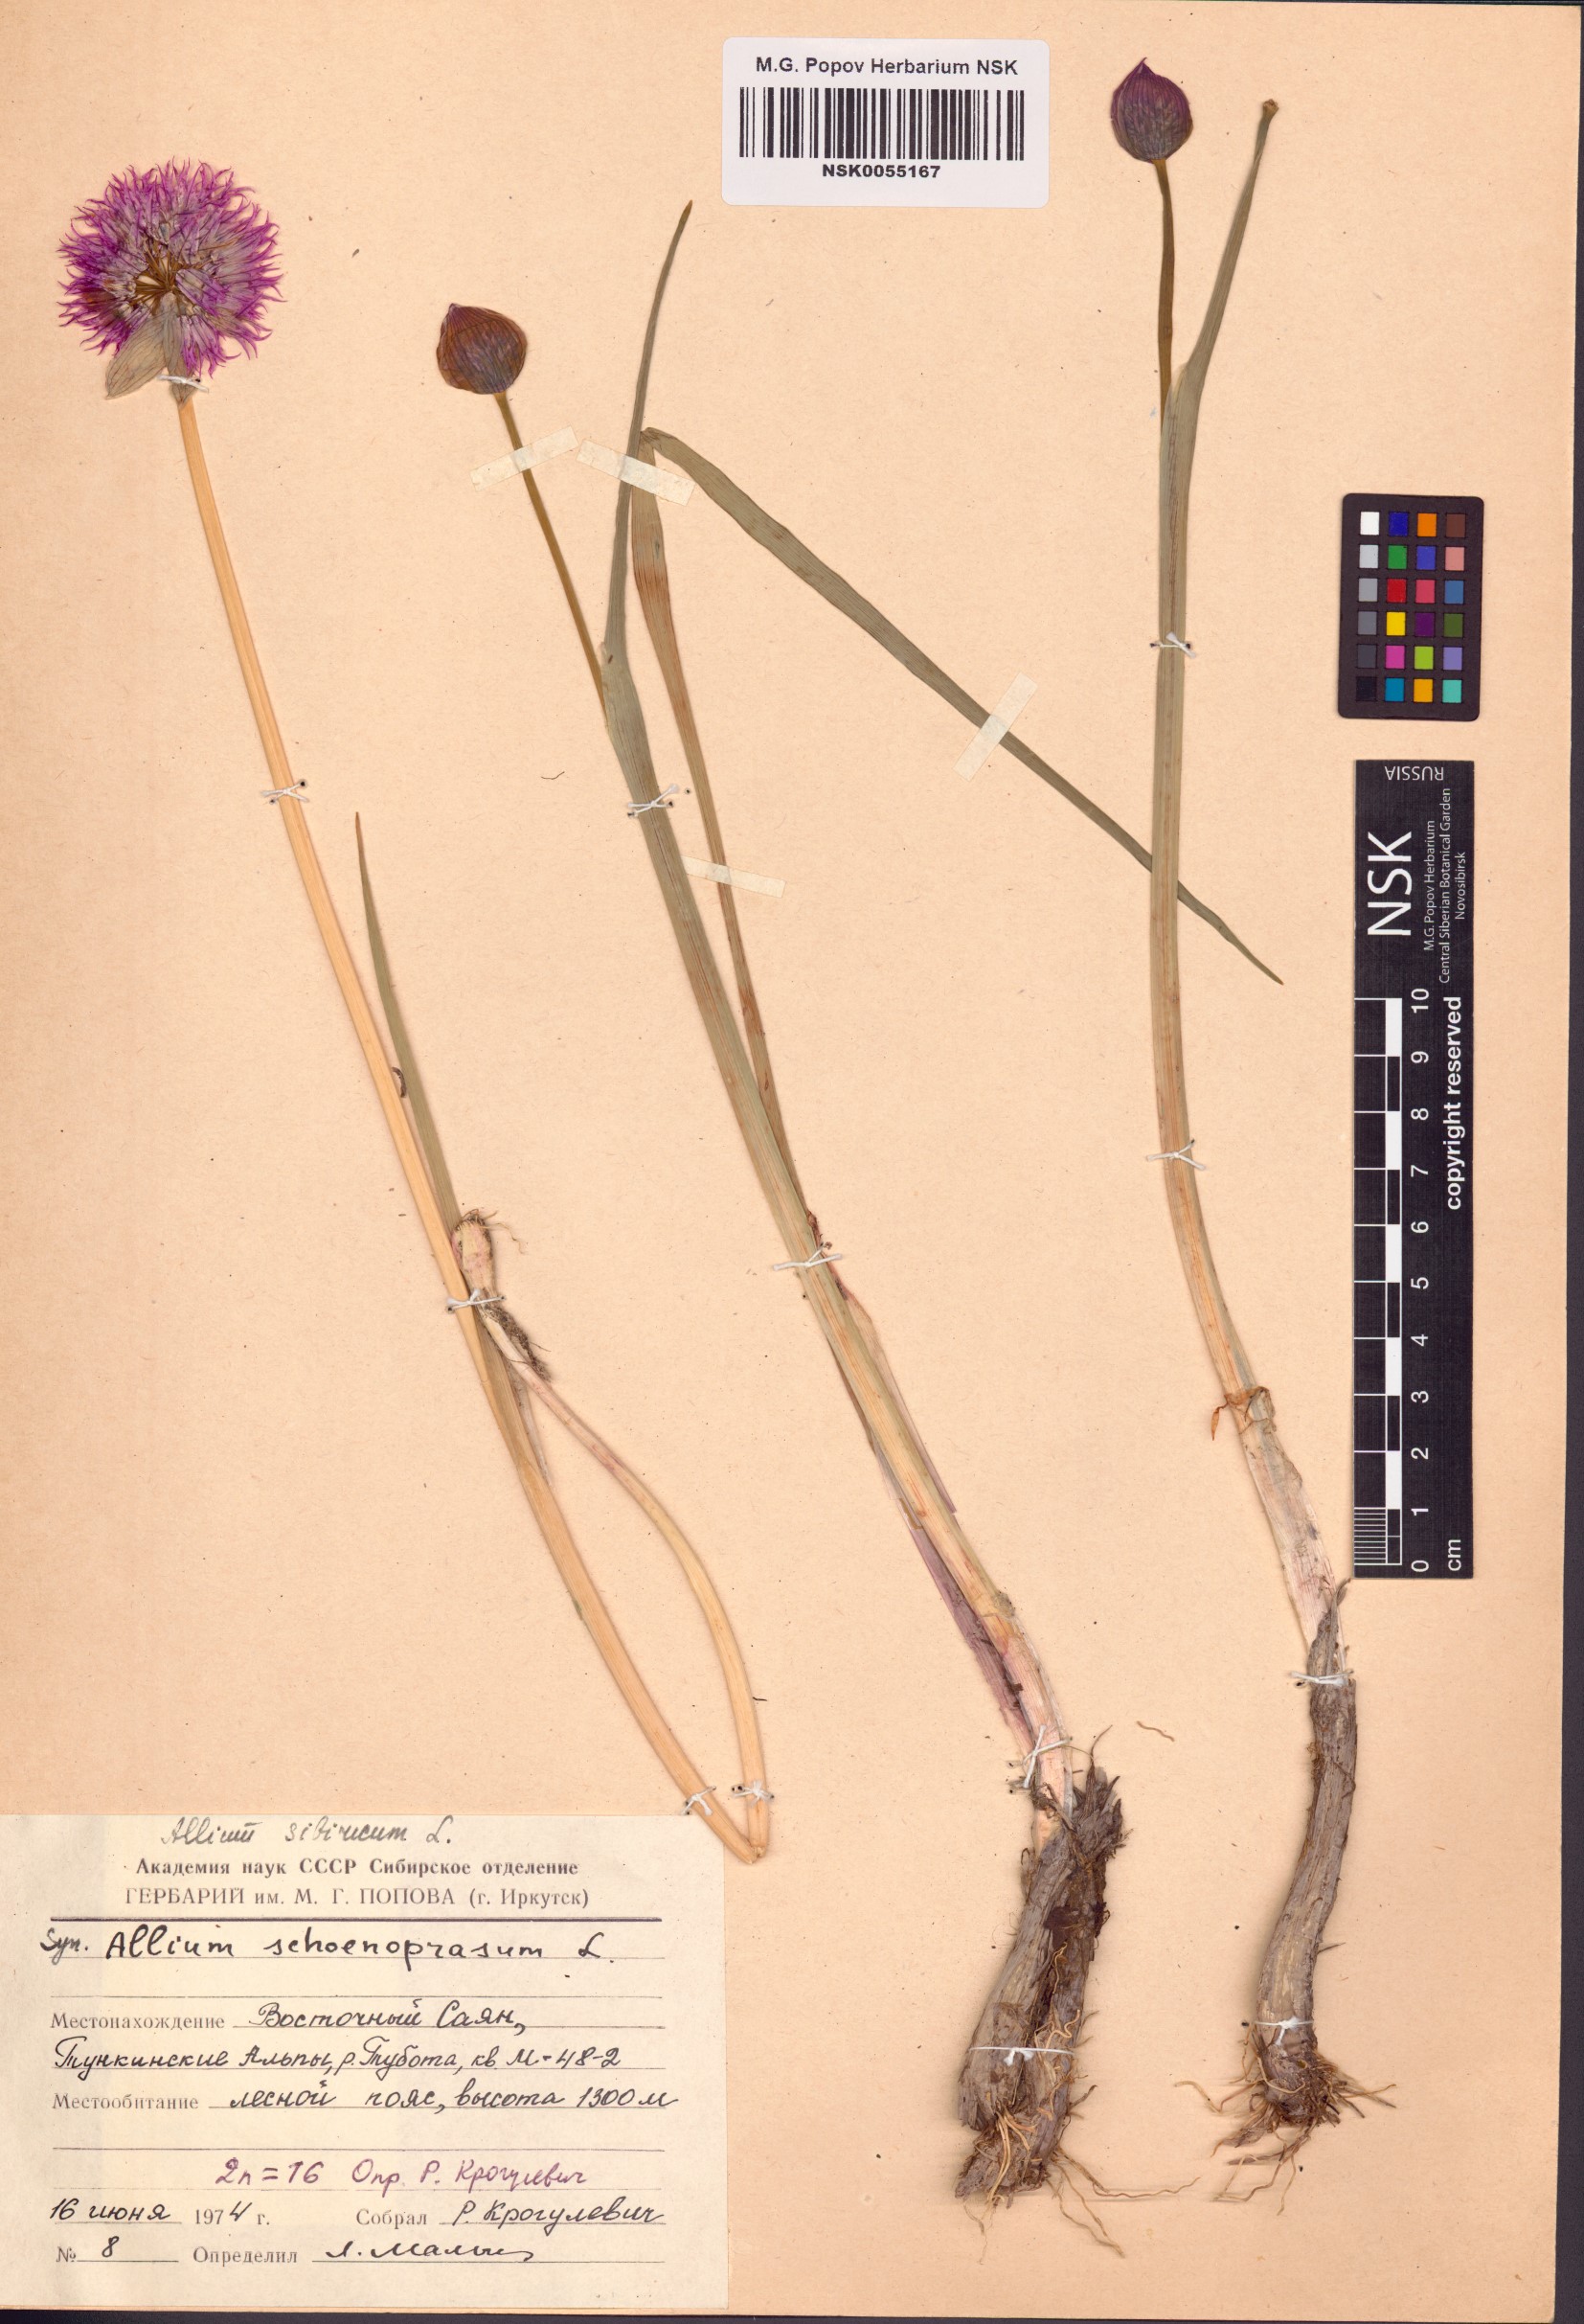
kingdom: Plantae
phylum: Tracheophyta
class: Liliopsida
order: Asparagales
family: Amaryllidaceae
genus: Allium
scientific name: Allium schoenoprasum
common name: Chives
